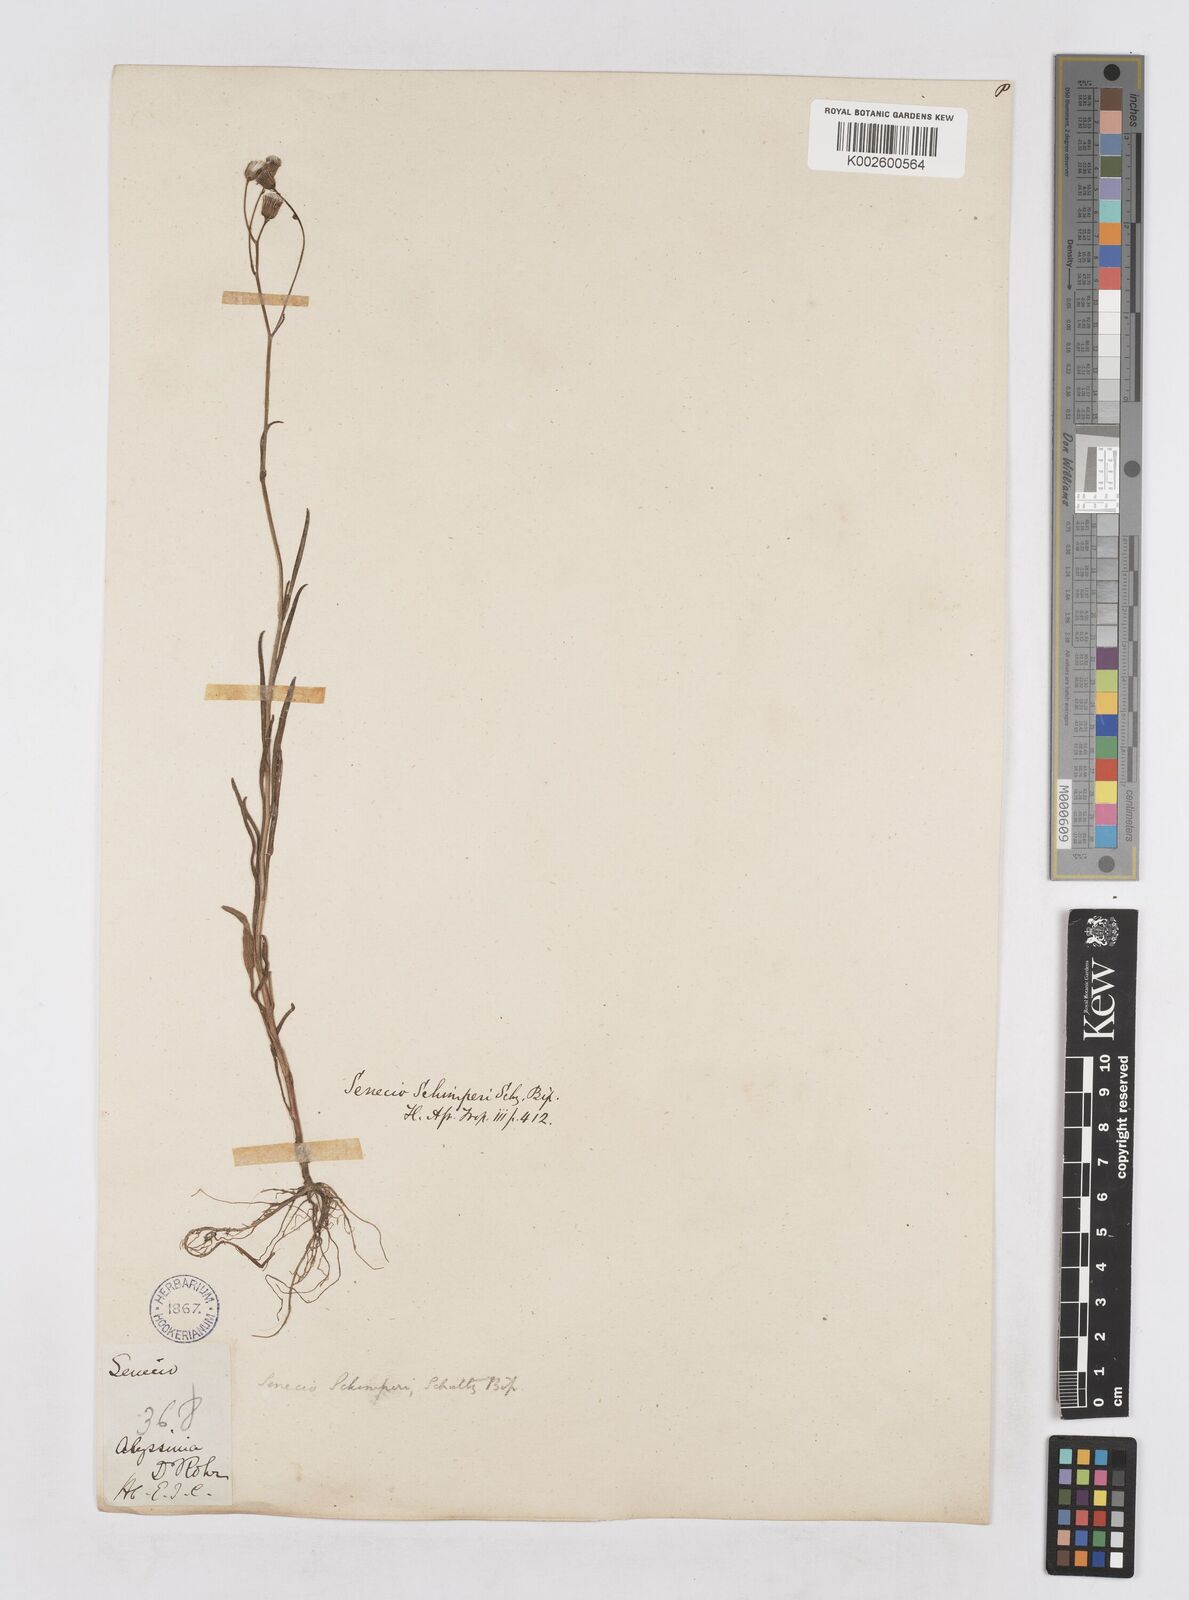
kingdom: Plantae
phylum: Tracheophyta
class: Magnoliopsida
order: Asterales
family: Asteraceae
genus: Senecio
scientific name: Senecio schimperi
